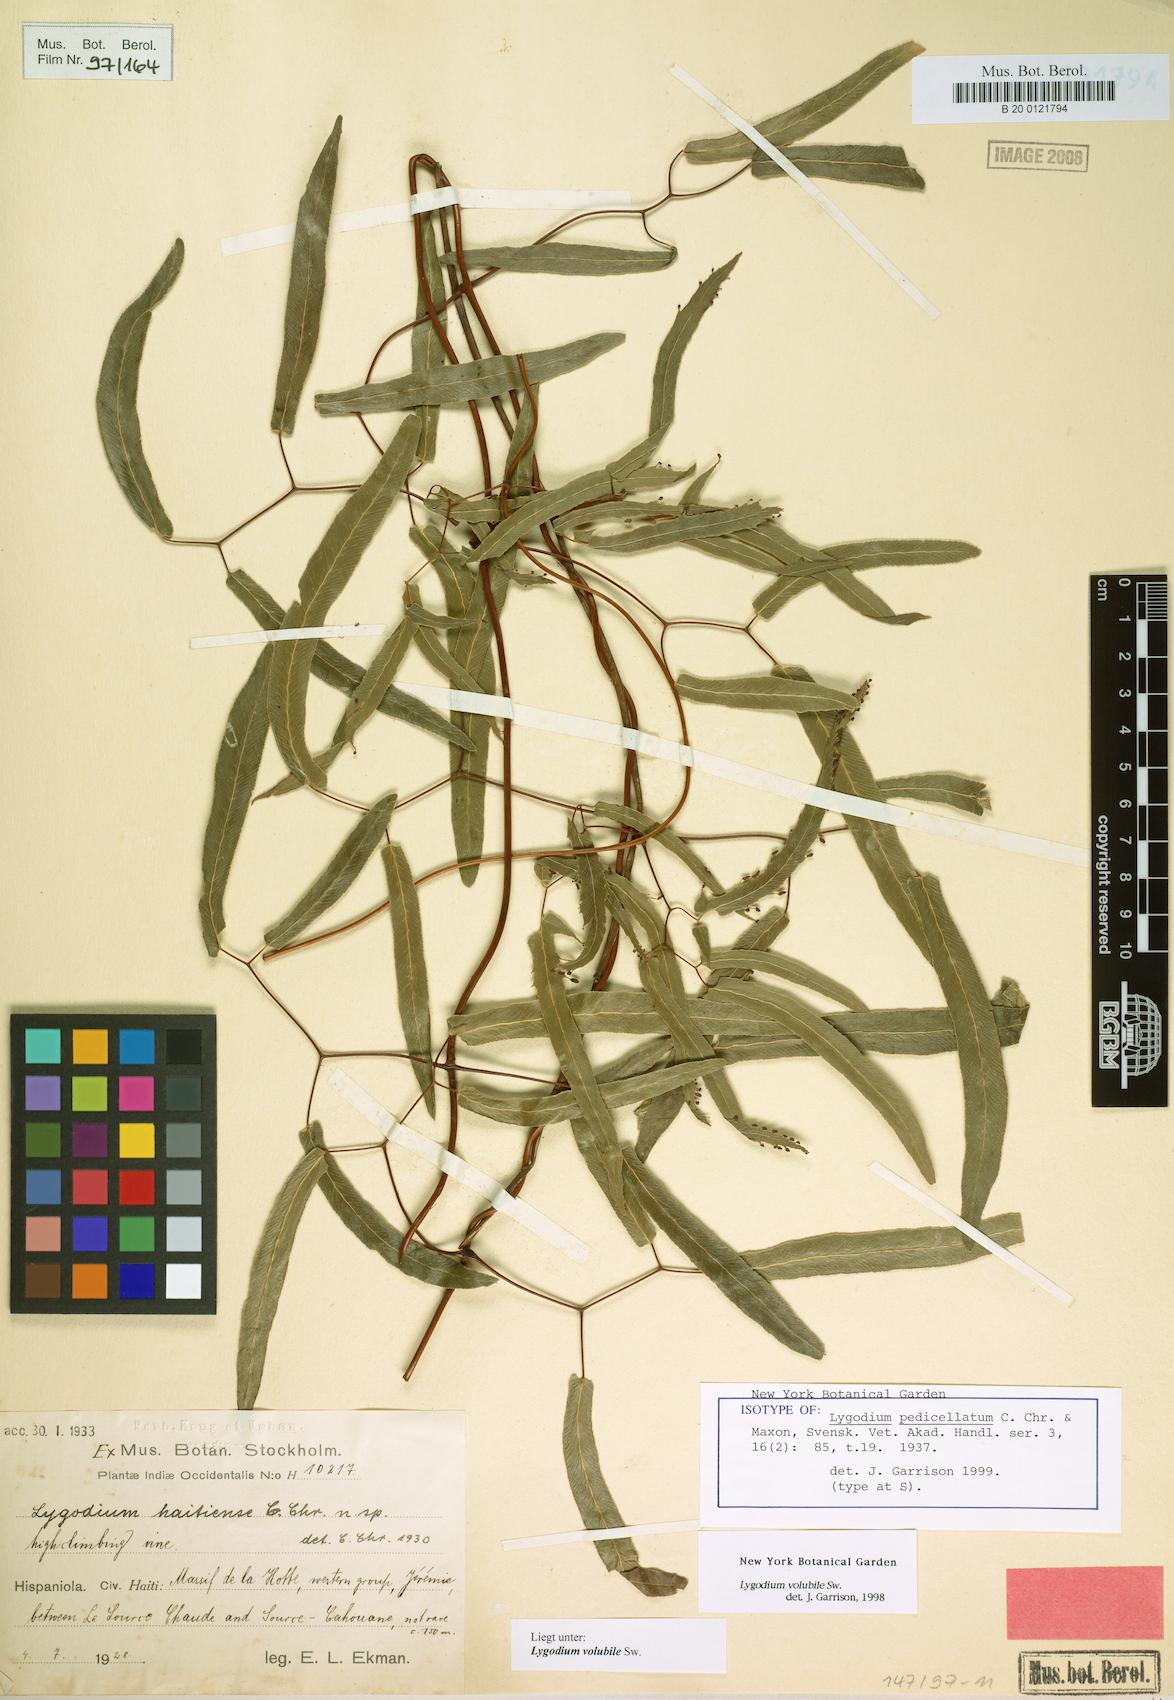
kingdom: Plantae
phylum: Tracheophyta
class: Polypodiopsida
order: Schizaeales
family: Lygodiaceae
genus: Lygodium
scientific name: Lygodium volubile
